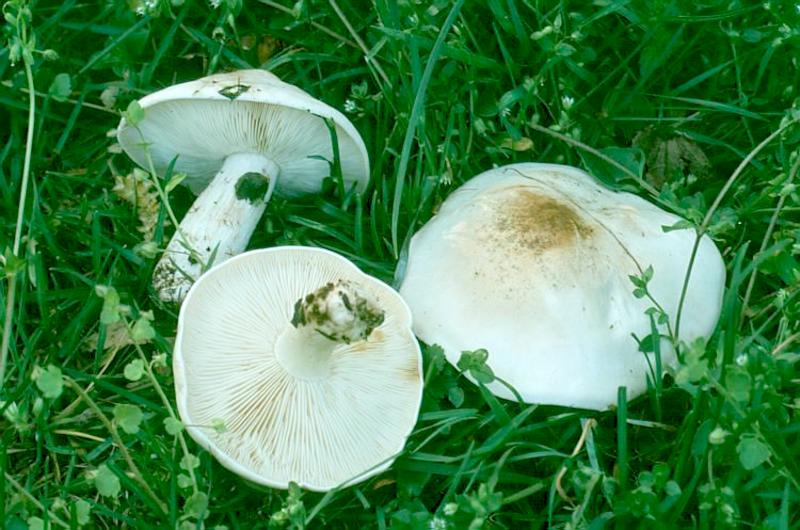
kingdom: Fungi
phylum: Basidiomycota
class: Agaricomycetes
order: Agaricales
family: Lyophyllaceae
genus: Calocybe
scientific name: Calocybe gambosa
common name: St. george's mushroom
